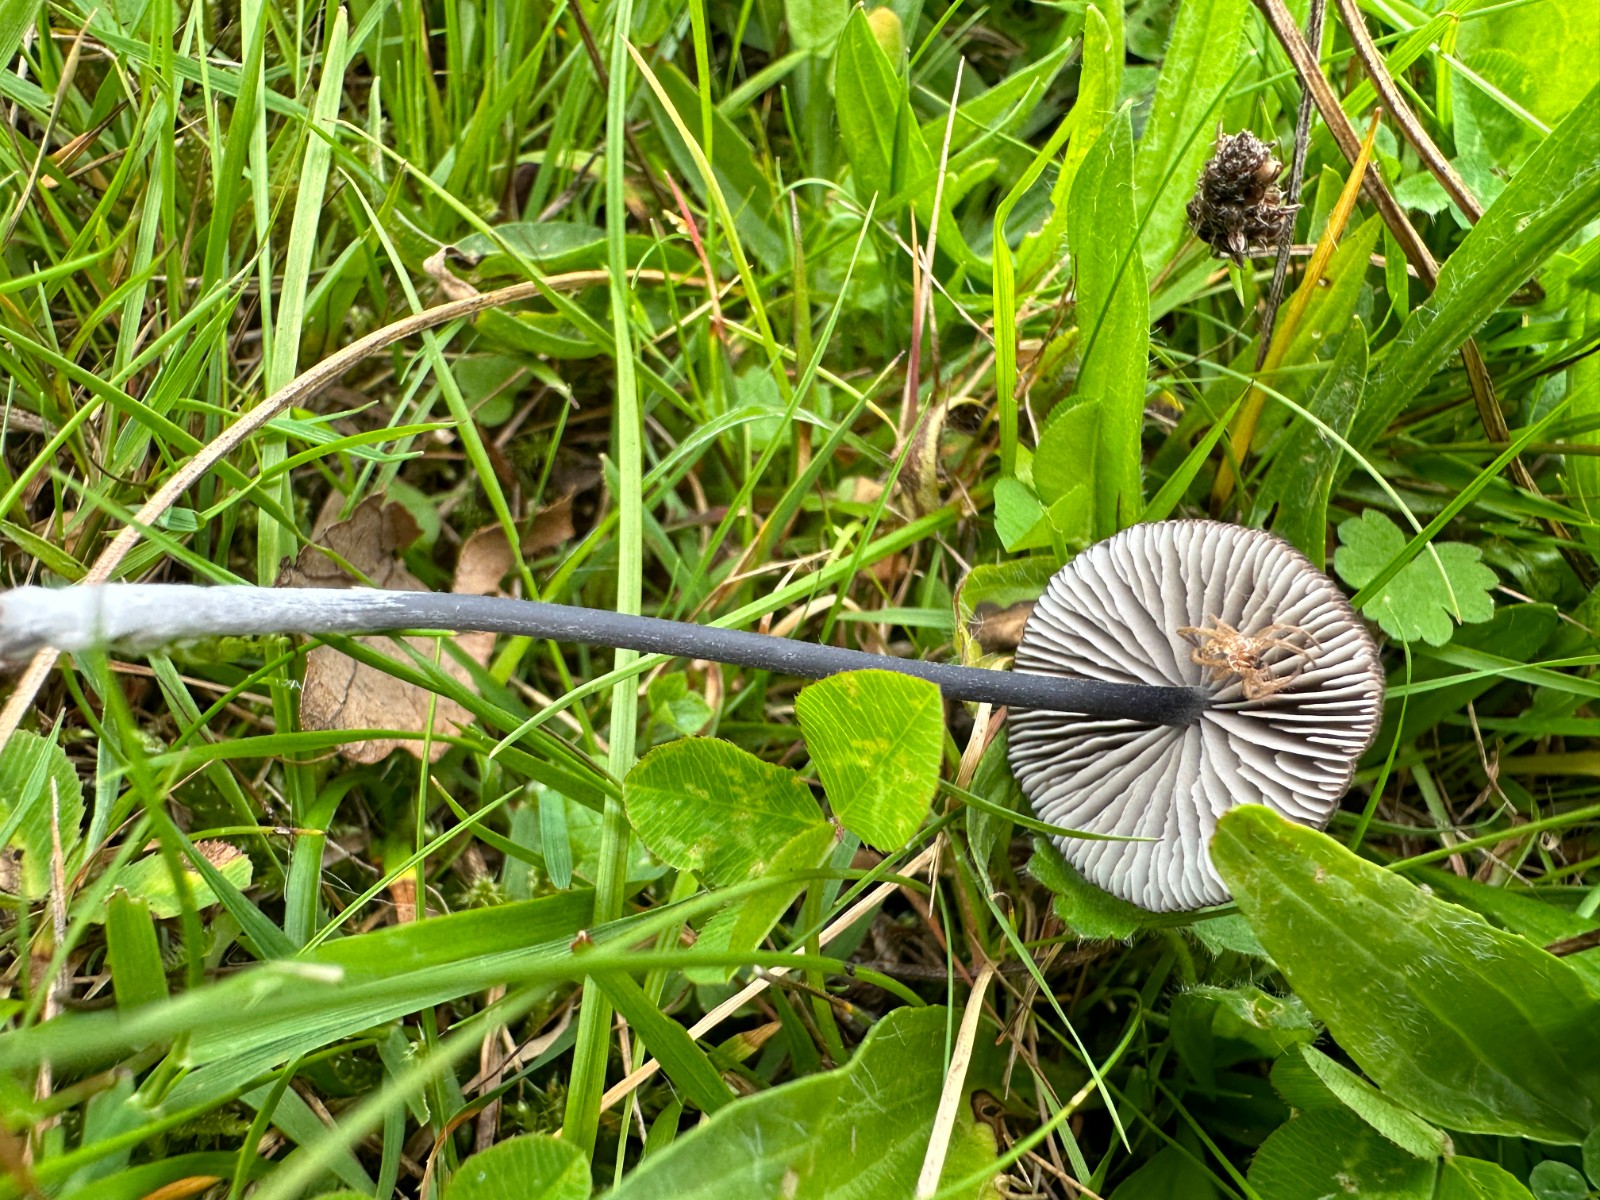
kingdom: Fungi
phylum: Basidiomycota
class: Agaricomycetes
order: Agaricales
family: Entolomataceae
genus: Entoloma
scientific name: Entoloma chalybeum
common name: blåbladet rødblad
